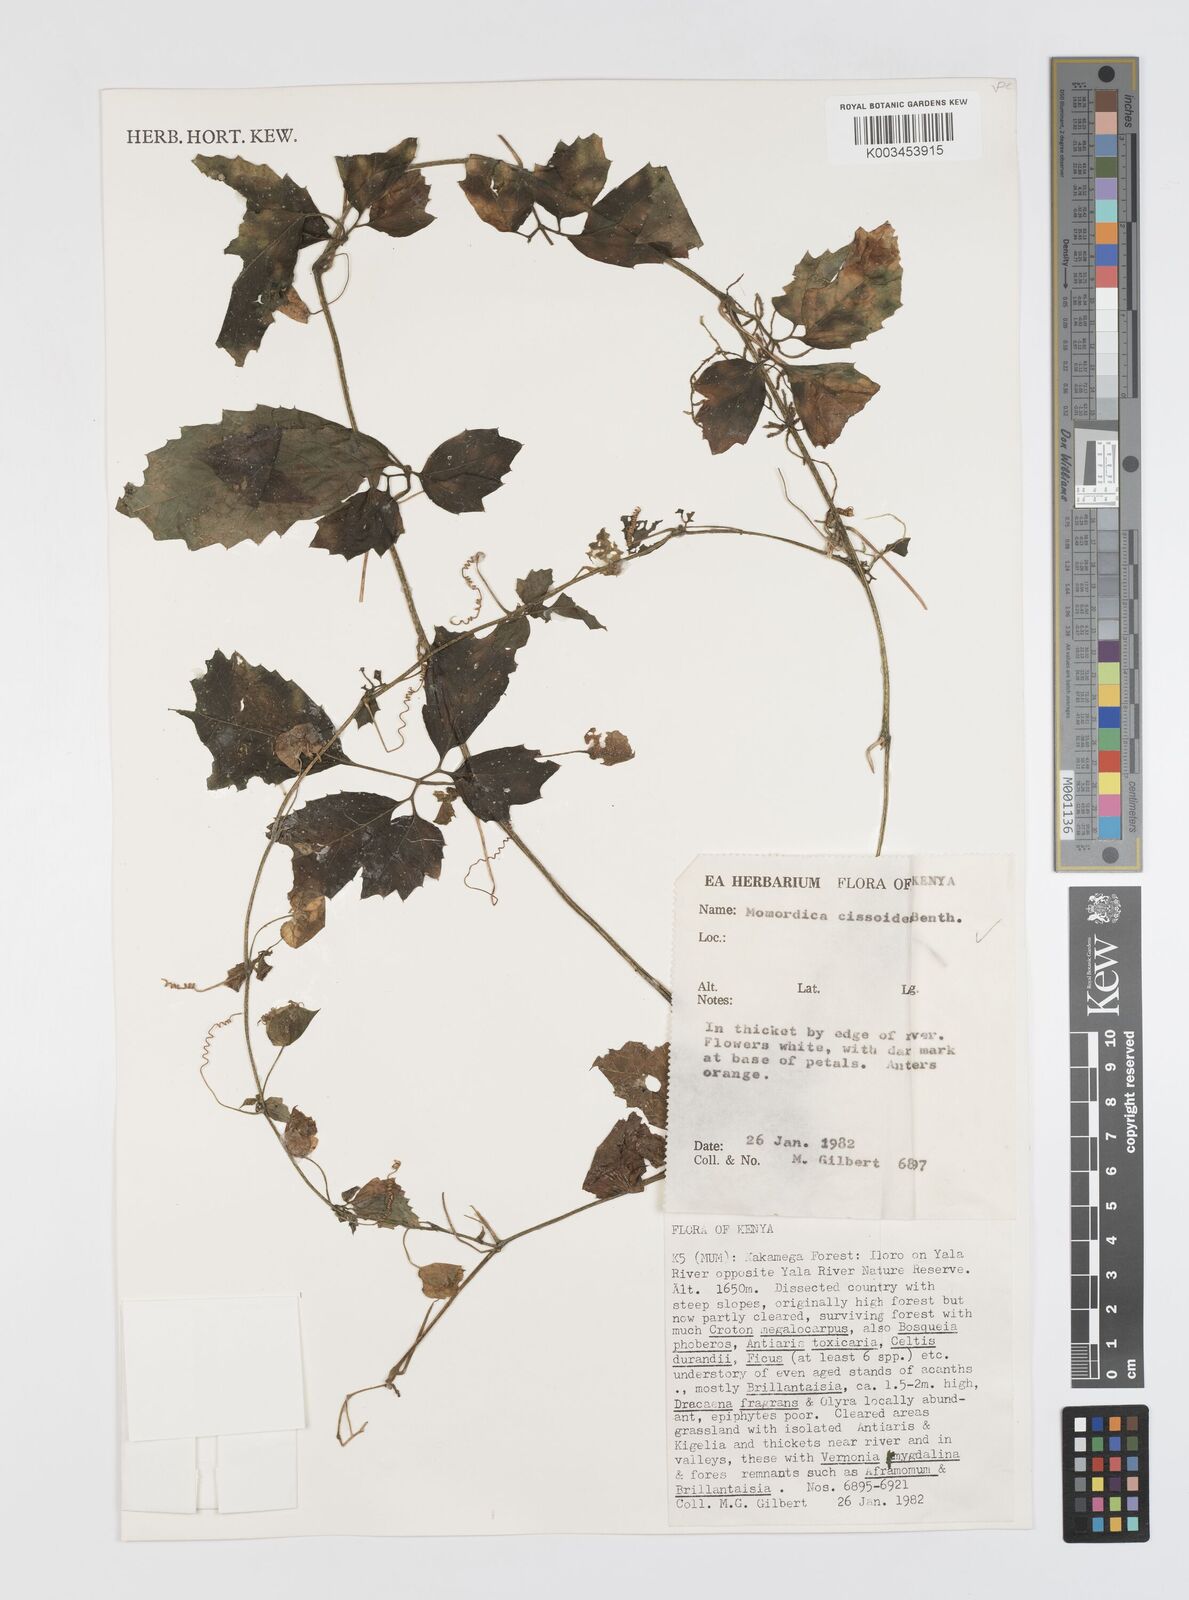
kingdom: Plantae
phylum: Tracheophyta
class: Magnoliopsida
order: Cucurbitales
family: Cucurbitaceae
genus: Momordica
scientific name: Momordica cissoides
